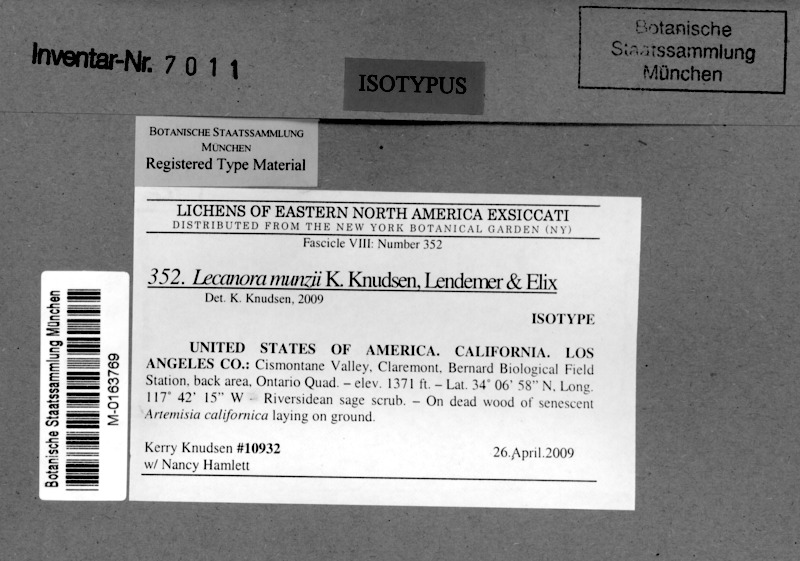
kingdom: Fungi
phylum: Ascomycota
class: Lecanoromycetes
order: Lecanorales
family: Lecanoraceae
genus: Lecanora
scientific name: Lecanora munzii
